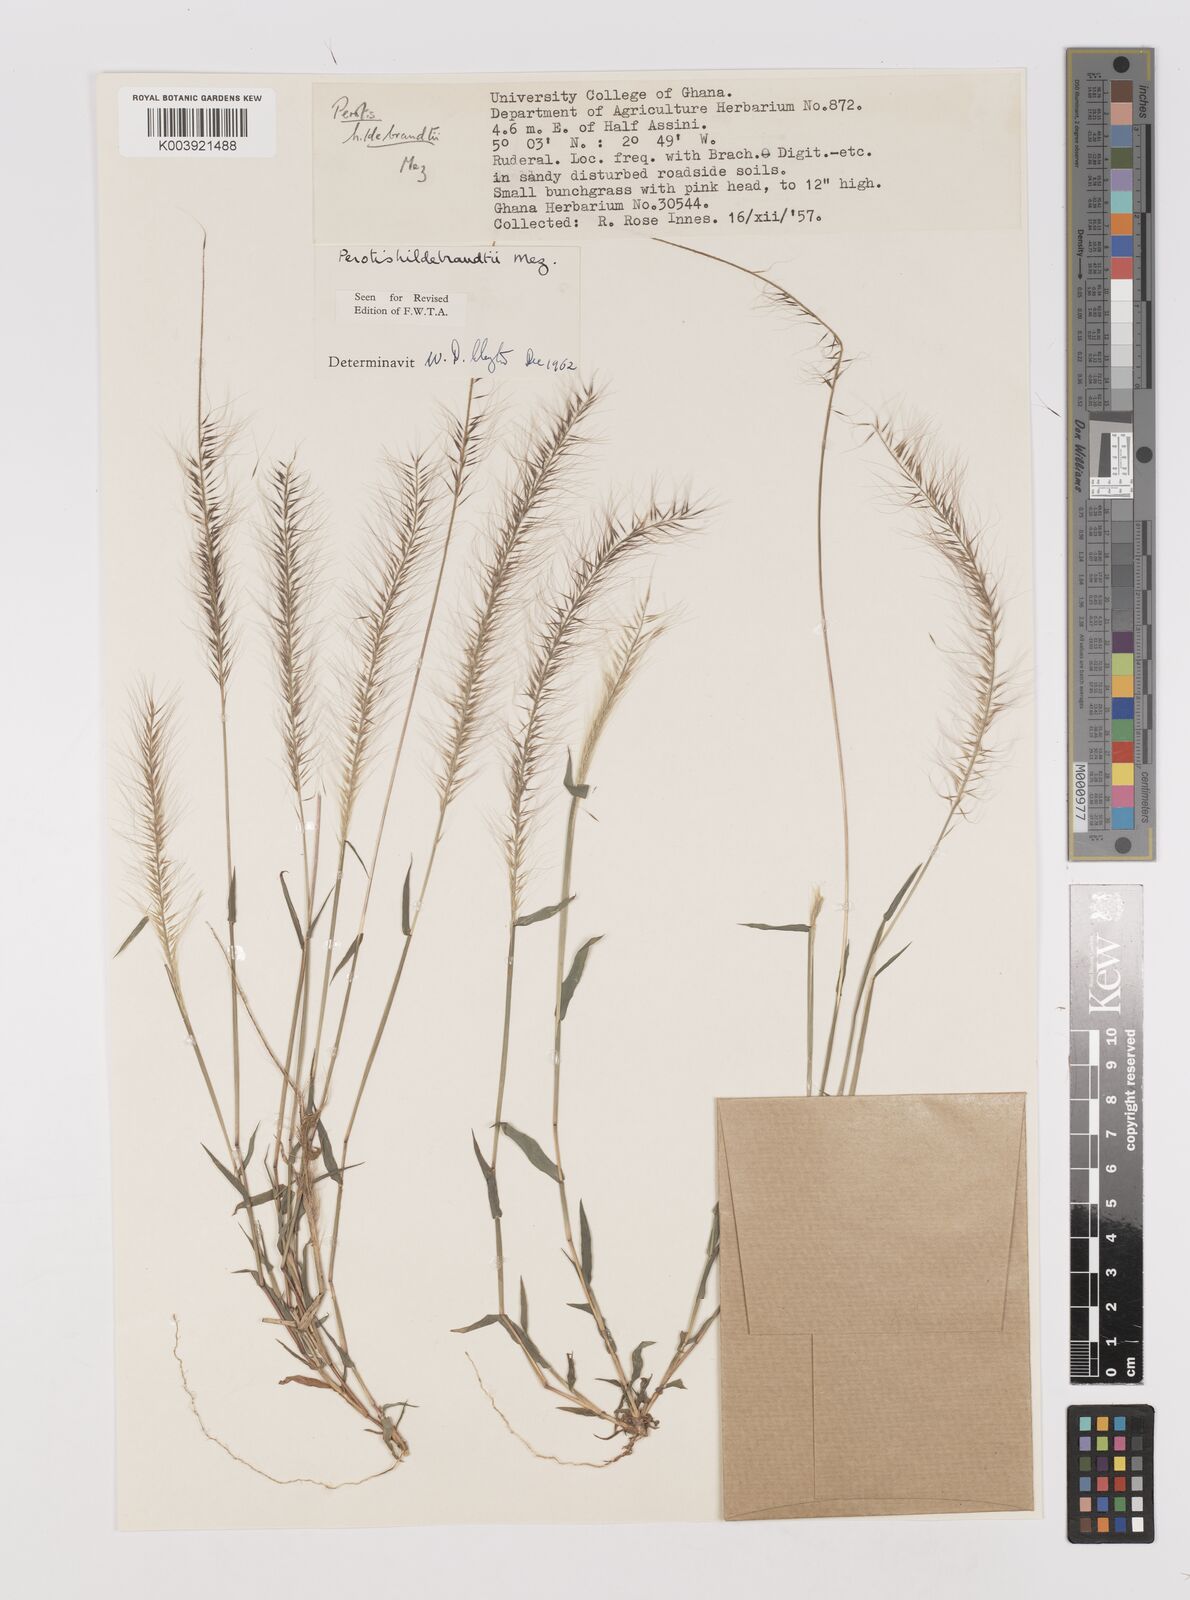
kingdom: Plantae
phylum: Tracheophyta
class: Liliopsida
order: Poales
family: Poaceae
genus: Perotis
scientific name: Perotis hildebrandtii
